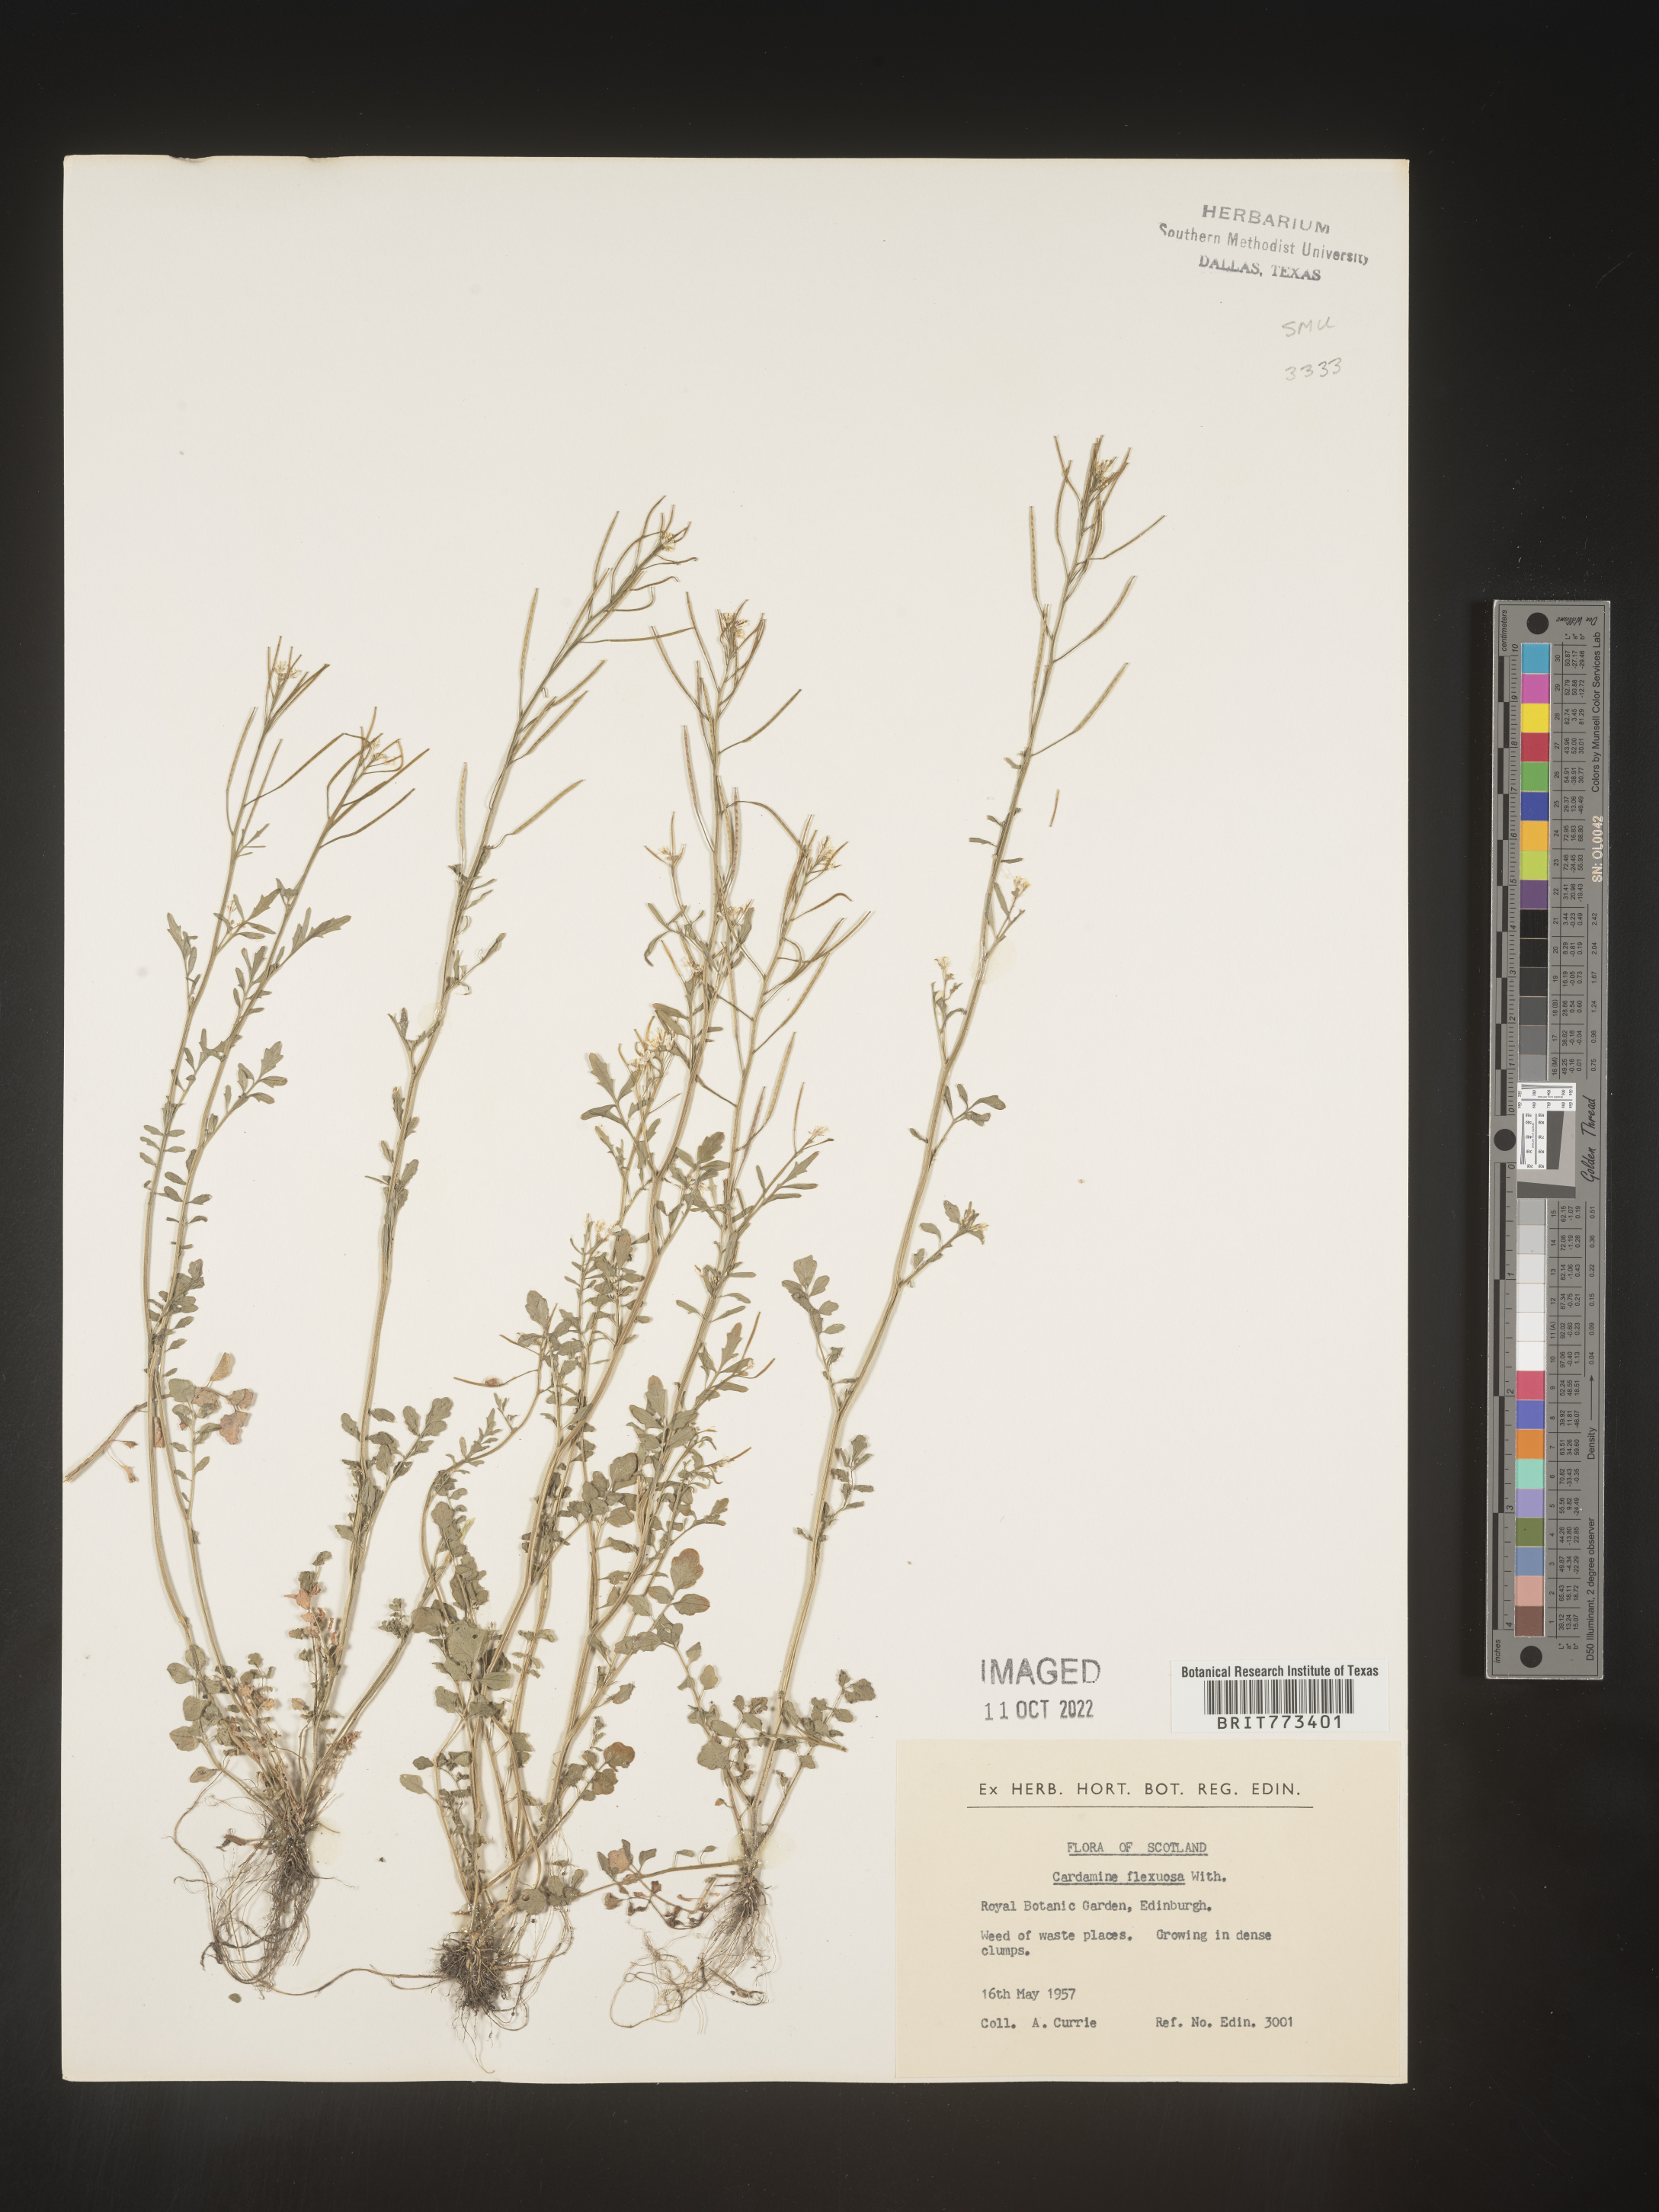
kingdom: Plantae
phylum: Tracheophyta
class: Magnoliopsida
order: Brassicales
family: Brassicaceae
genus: Cardamine
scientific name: Cardamine
